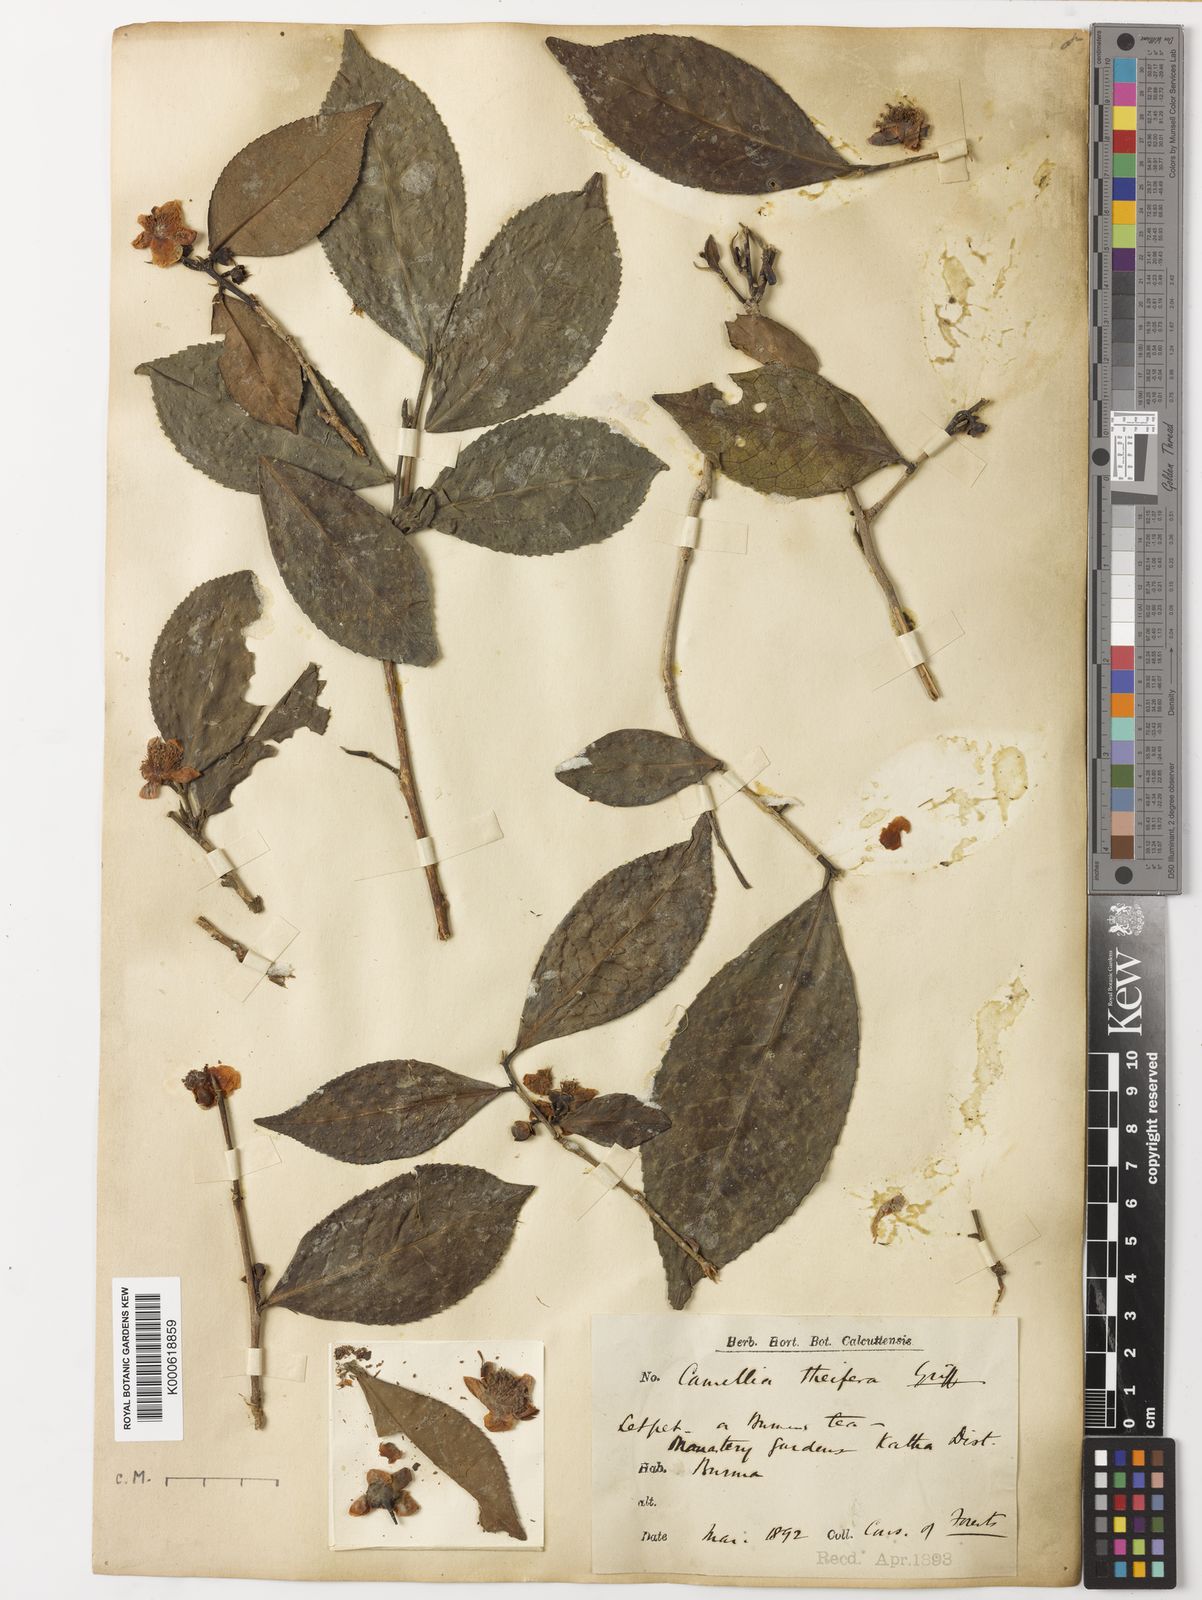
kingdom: Plantae
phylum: Tracheophyta
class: Magnoliopsida
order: Ericales
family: Theaceae
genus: Camellia
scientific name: Camellia sinensis
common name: Tea
